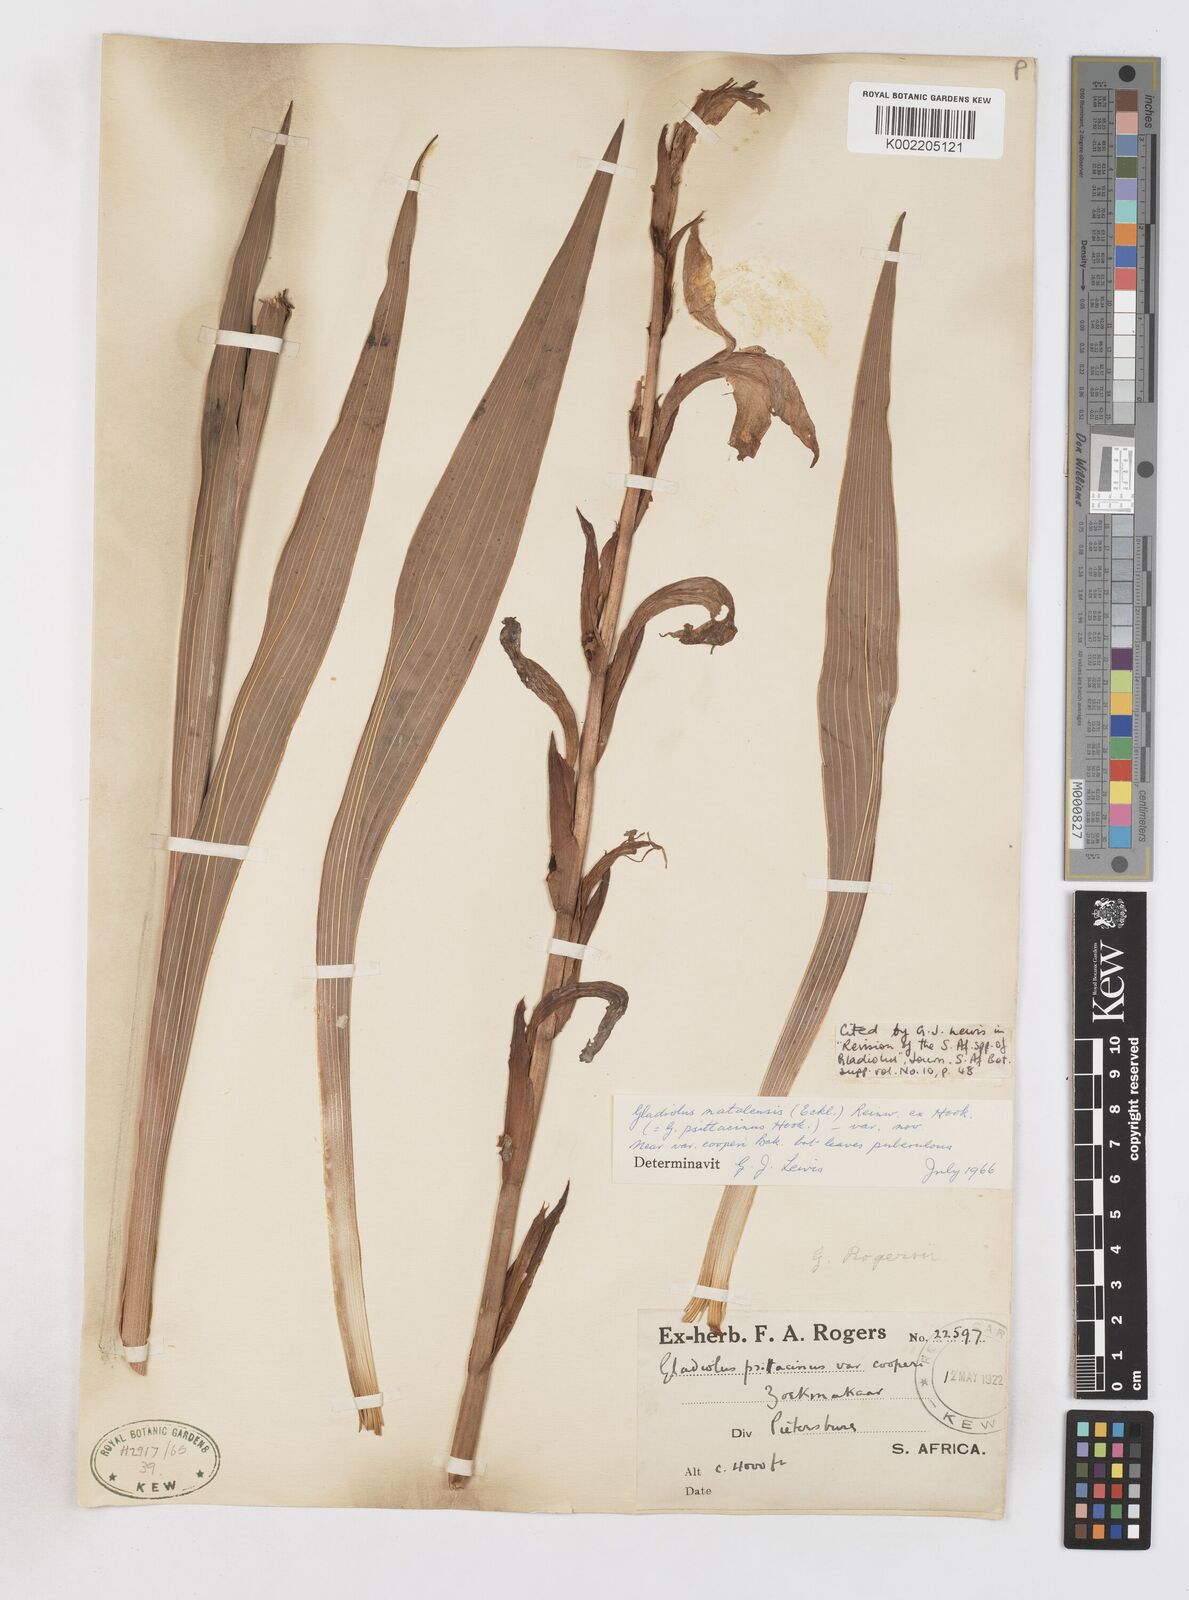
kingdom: Plantae
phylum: Tracheophyta
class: Liliopsida
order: Asparagales
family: Iridaceae
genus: Gladiolus
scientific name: Gladiolus dalenii
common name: Cornflag
